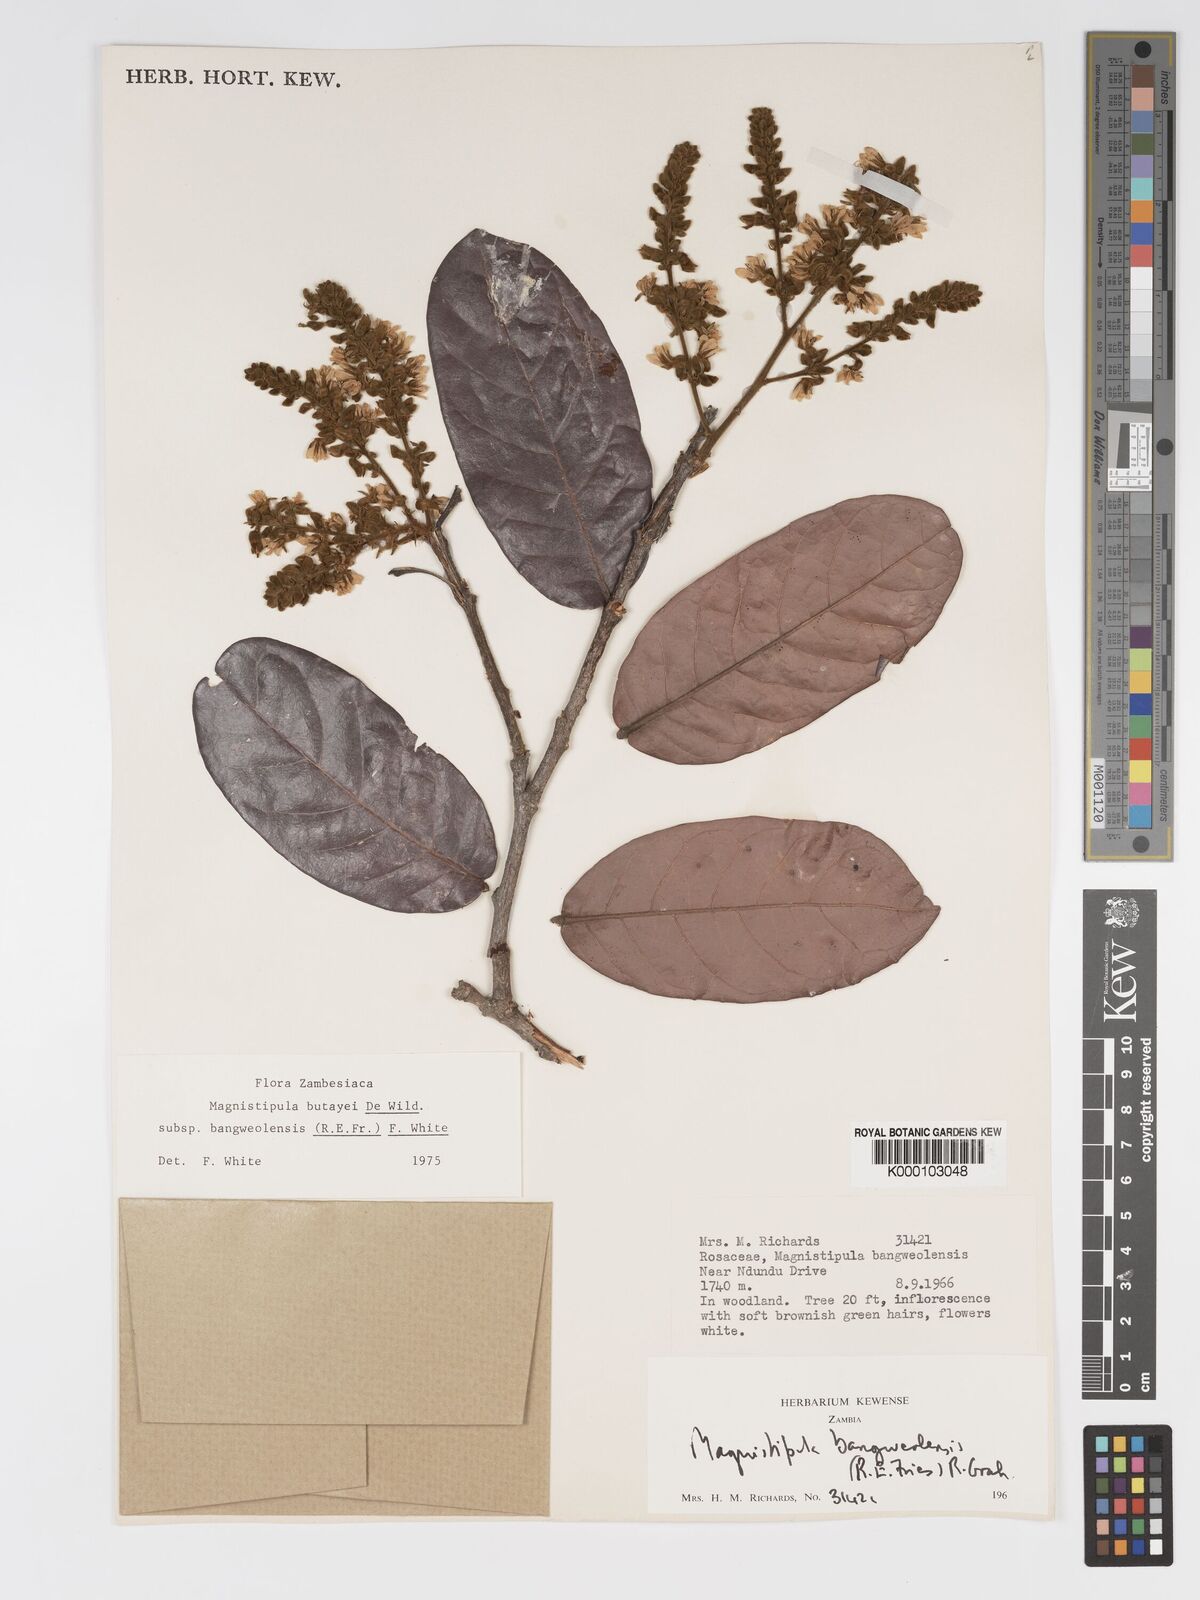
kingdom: Plantae
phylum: Tracheophyta
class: Magnoliopsida
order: Malpighiales
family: Chrysobalanaceae
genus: Magnistipula
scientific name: Magnistipula butayei
